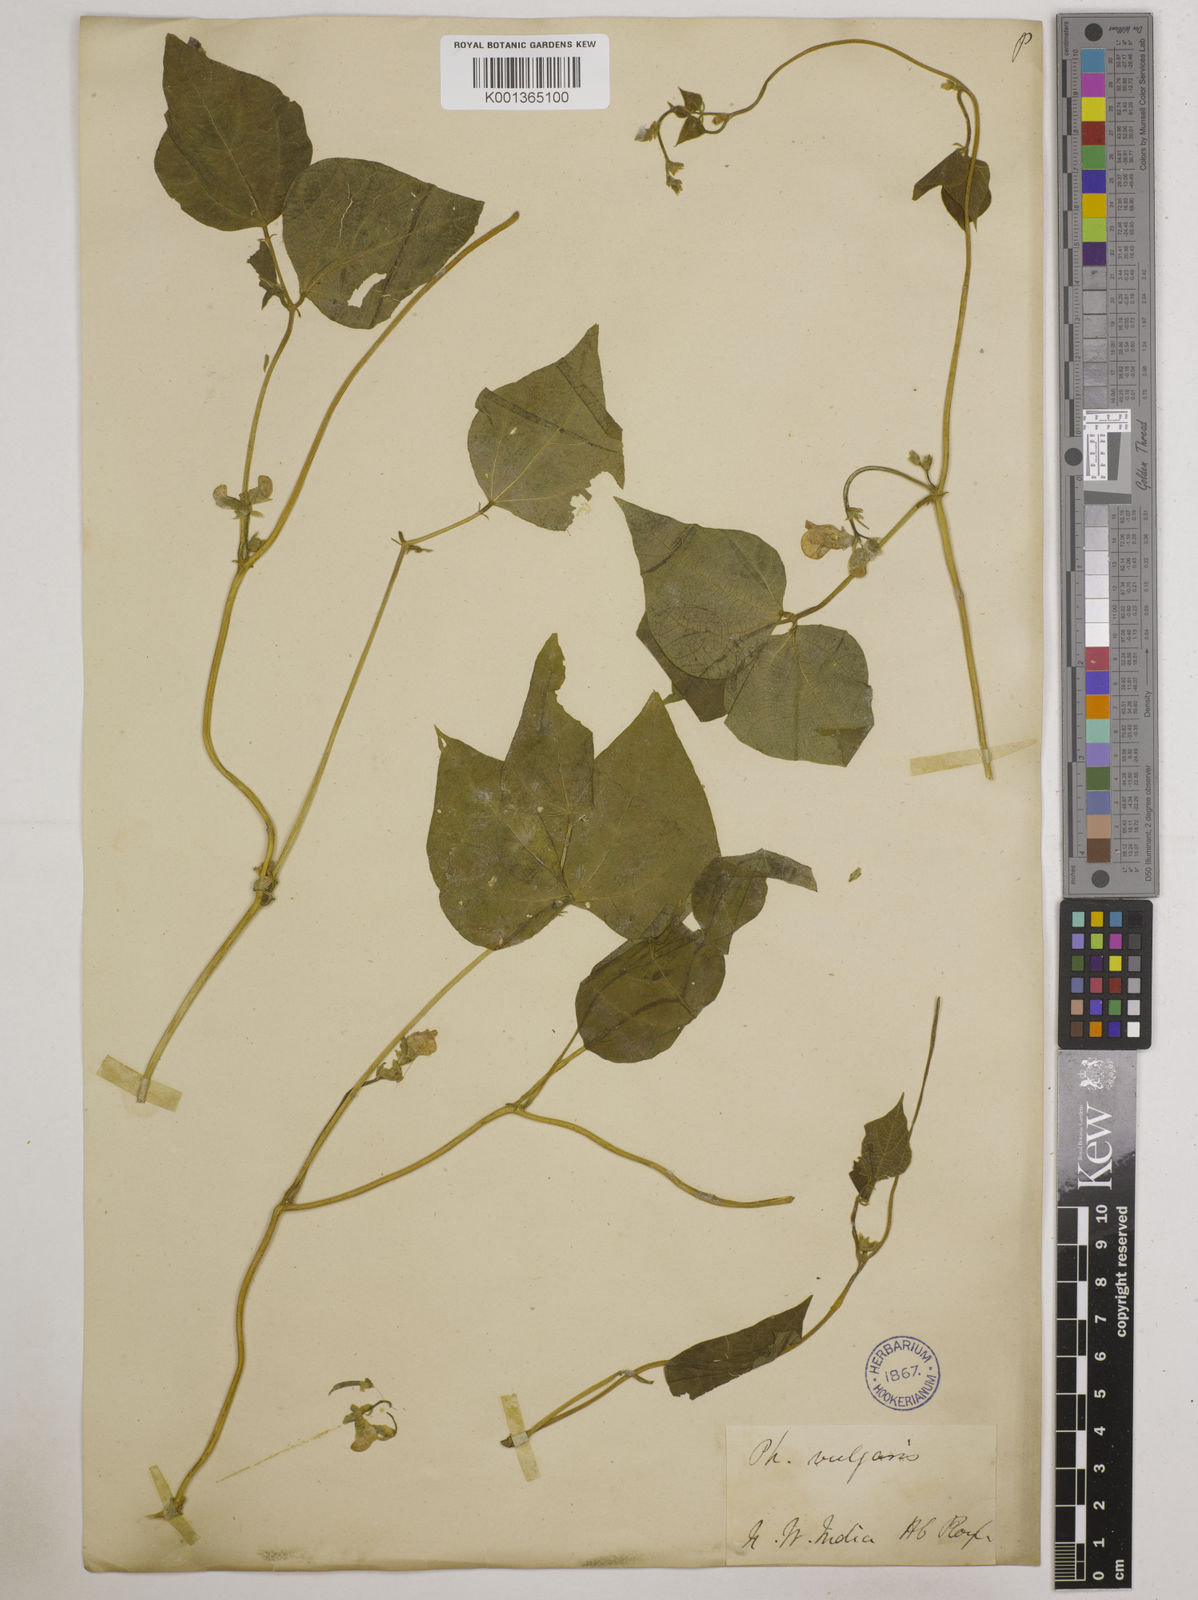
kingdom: Plantae
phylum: Tracheophyta
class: Magnoliopsida
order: Fabales
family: Fabaceae
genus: Phaseolus
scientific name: Phaseolus vulgaris
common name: Bean
